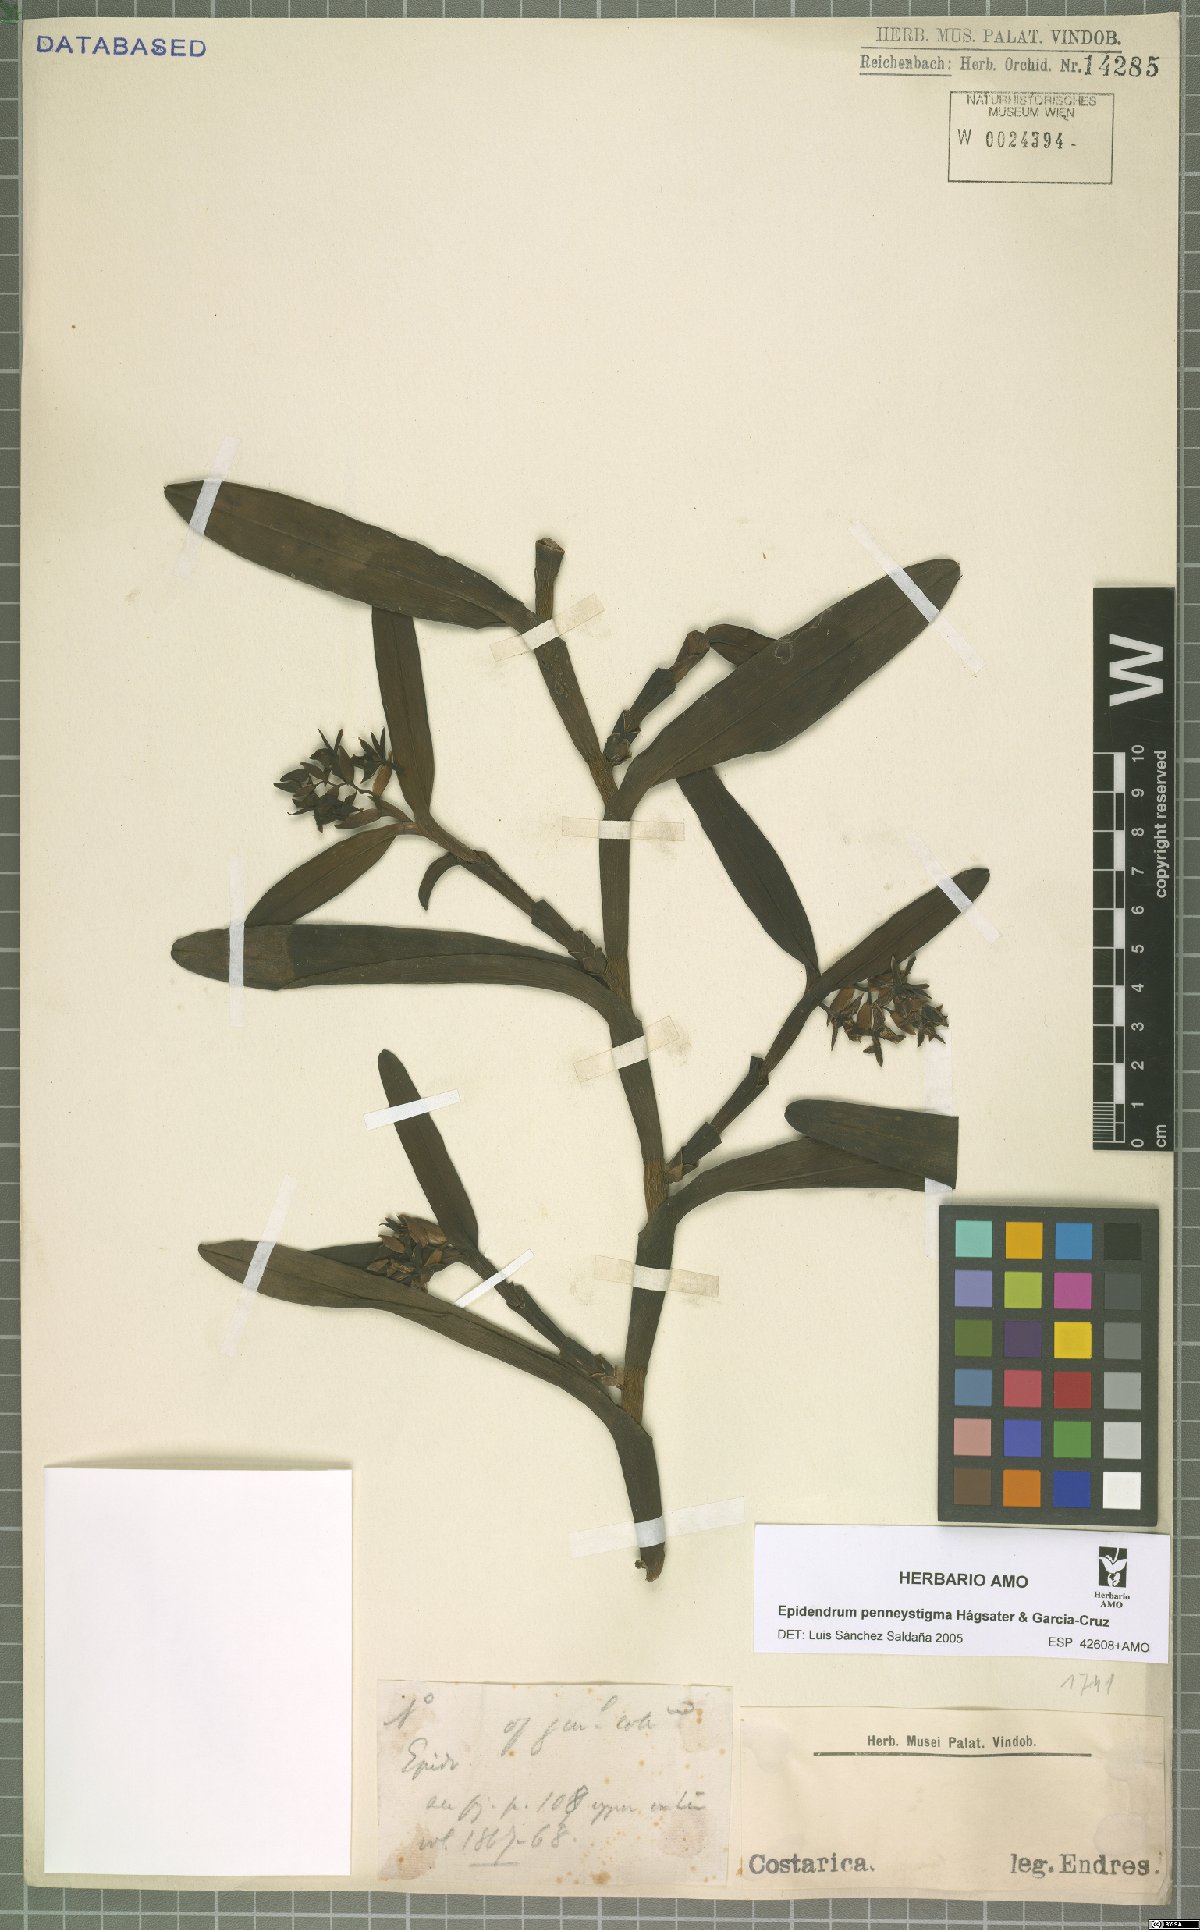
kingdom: Plantae
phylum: Tracheophyta
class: Liliopsida
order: Asparagales
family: Orchidaceae
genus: Epidendrum
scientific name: Epidendrum penneystigma
